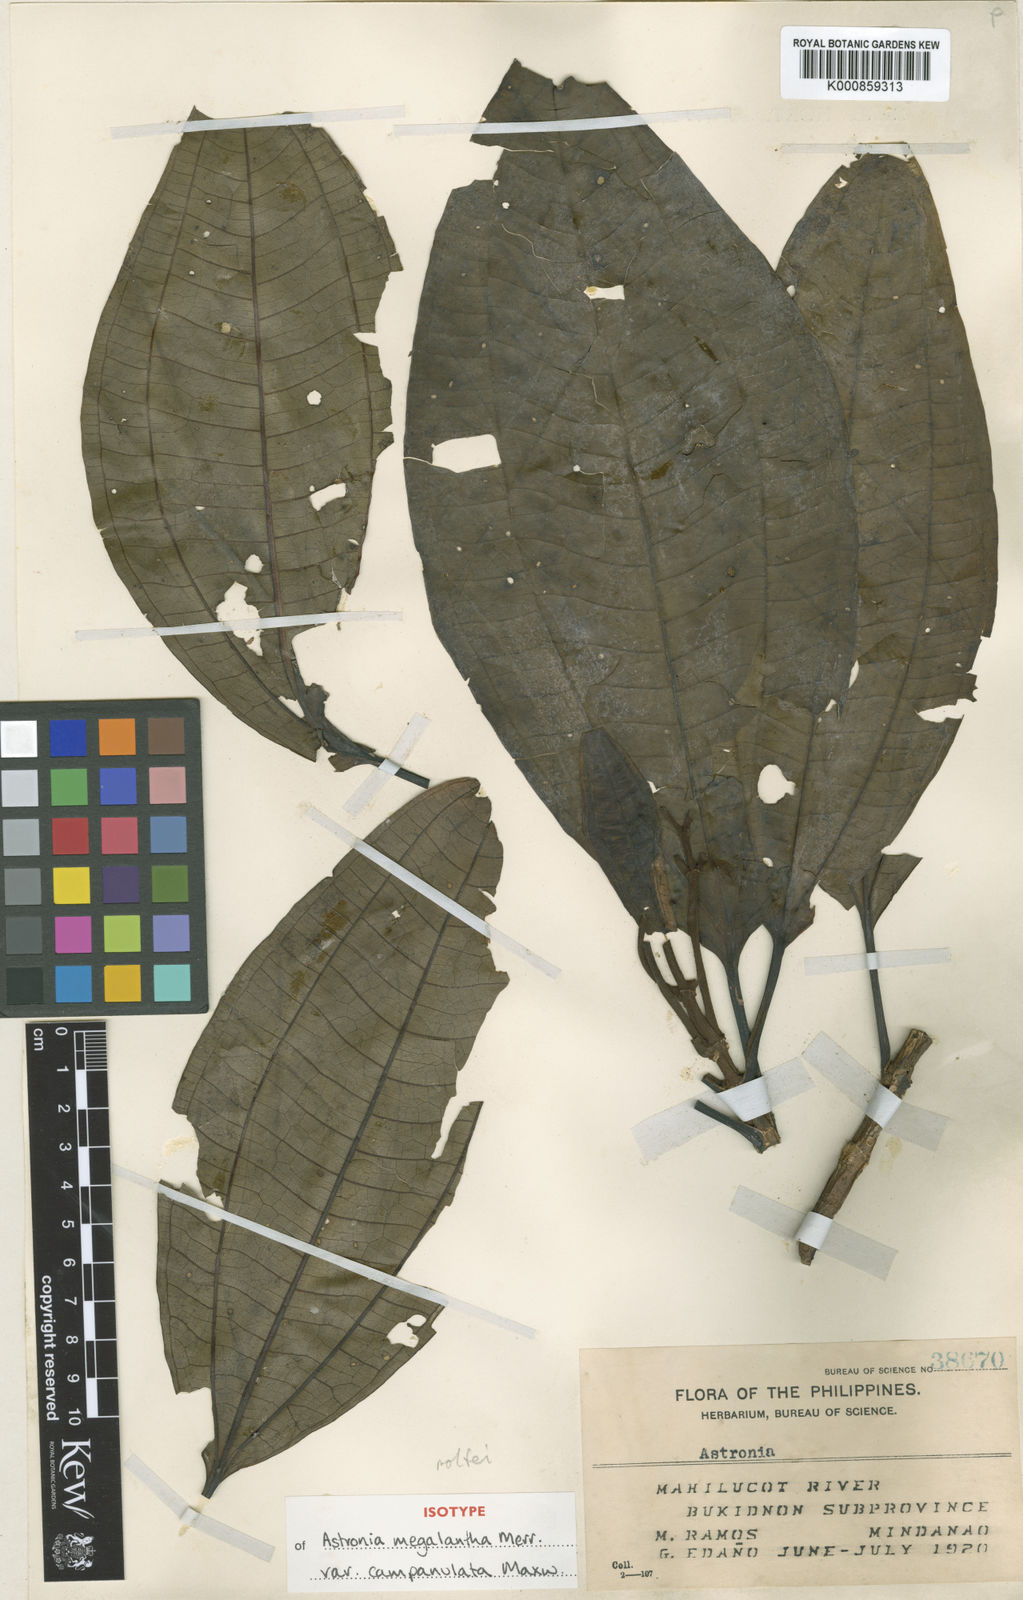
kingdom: Plantae
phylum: Tracheophyta
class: Magnoliopsida
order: Myrtales
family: Melastomataceae
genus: Astronia
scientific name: Astronia megalantha
